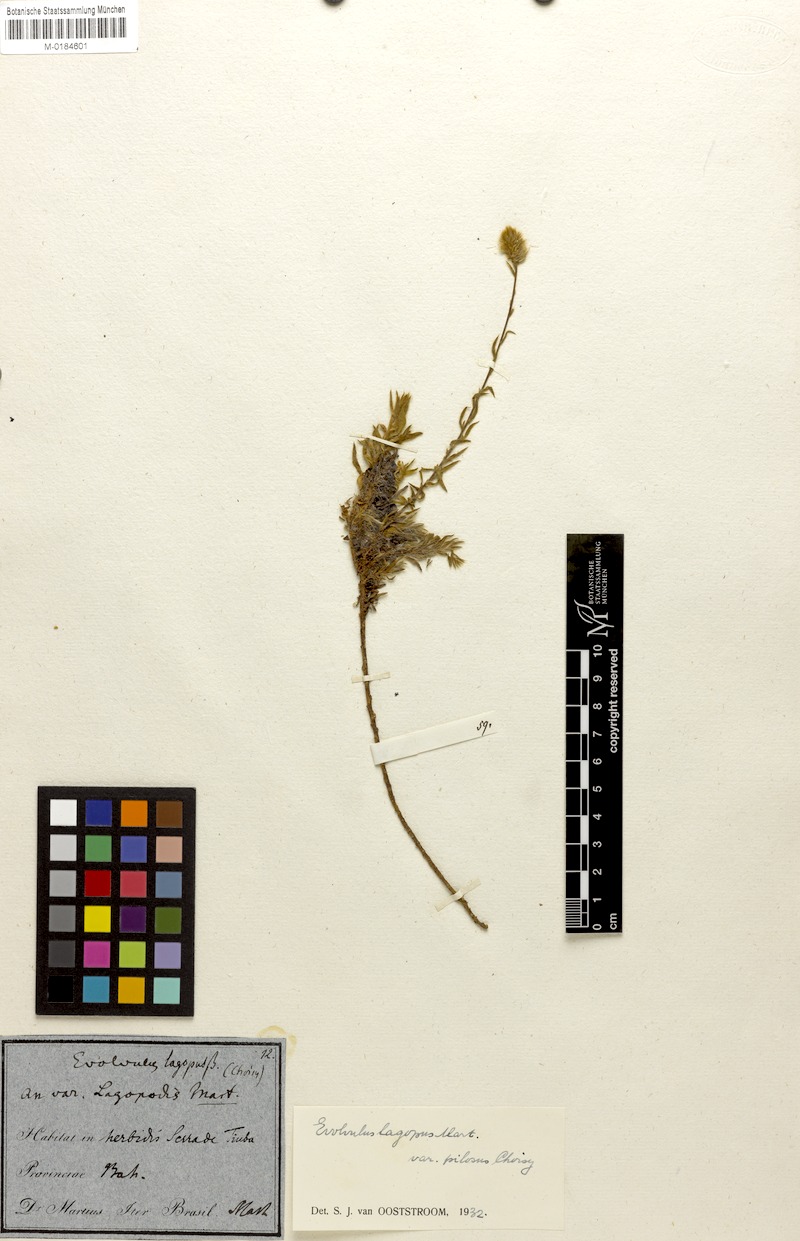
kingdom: Plantae
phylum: Tracheophyta
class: Magnoliopsida
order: Solanales
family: Convolvulaceae
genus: Evolvulus
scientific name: Evolvulus lagopus
